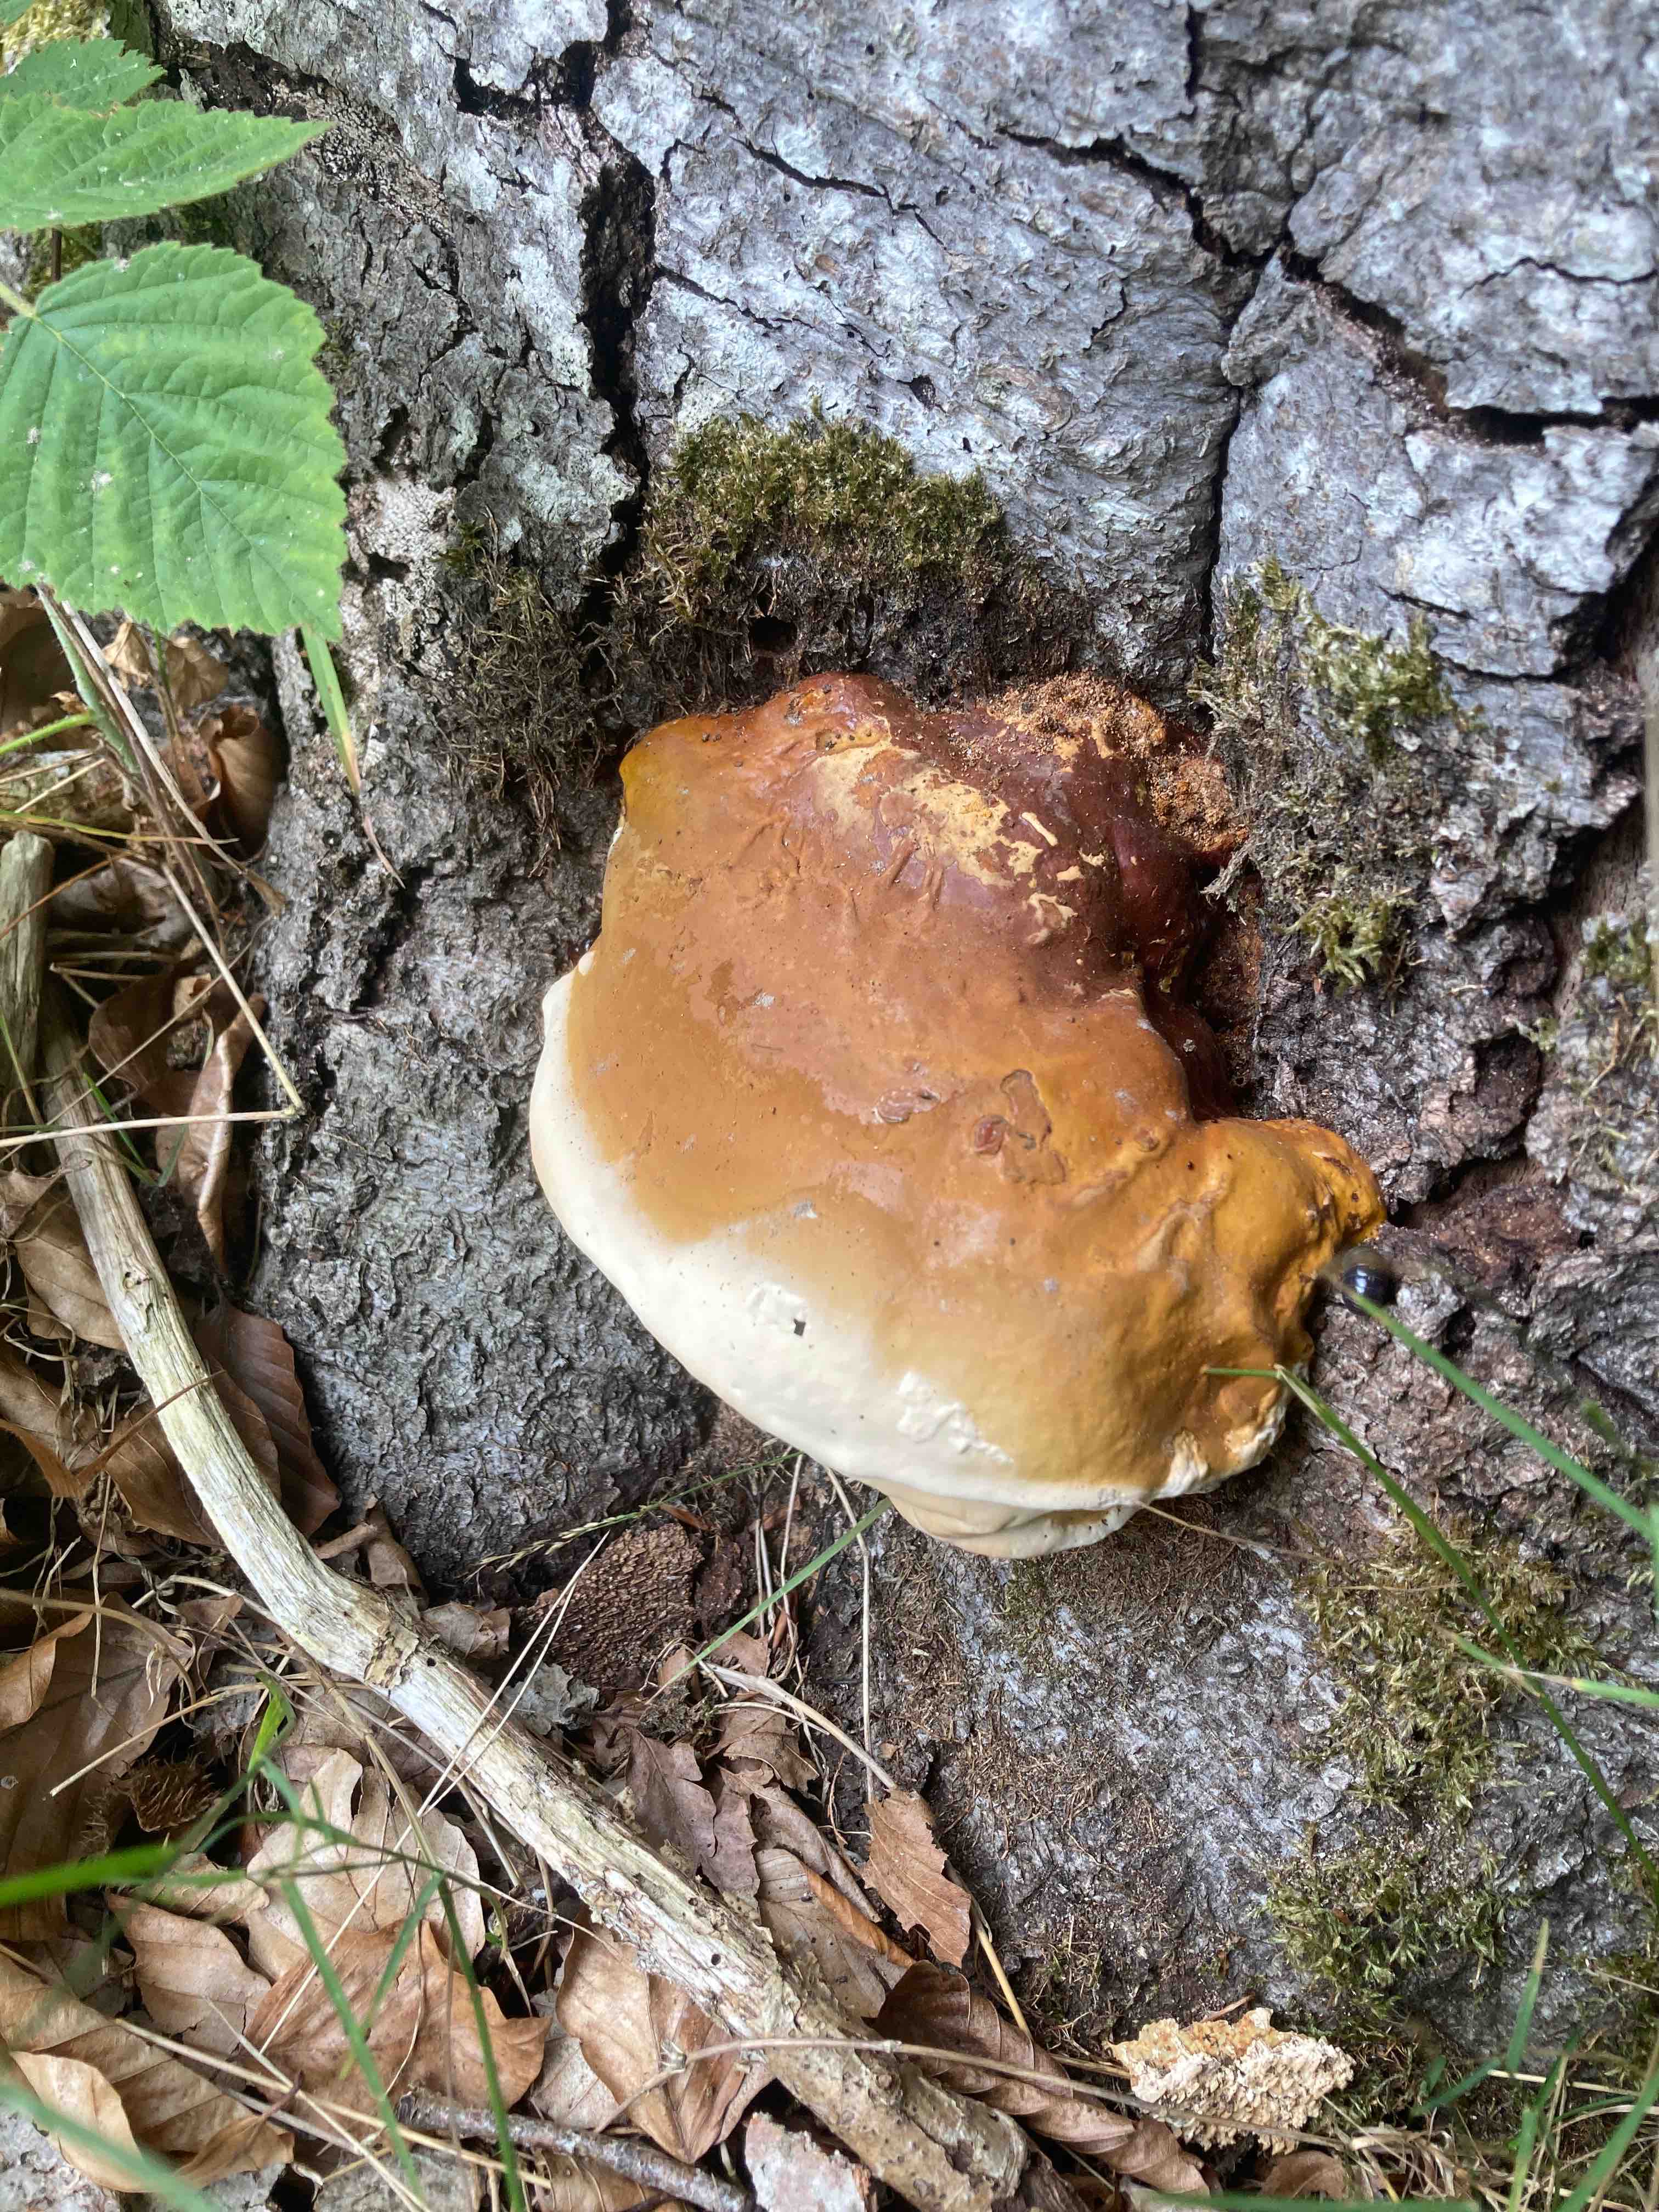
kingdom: Fungi
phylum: Basidiomycota
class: Agaricomycetes
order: Polyporales
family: Polyporaceae
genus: Ganoderma
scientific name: Ganoderma resinaceum
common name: gyldenbrun lakporesvamp
